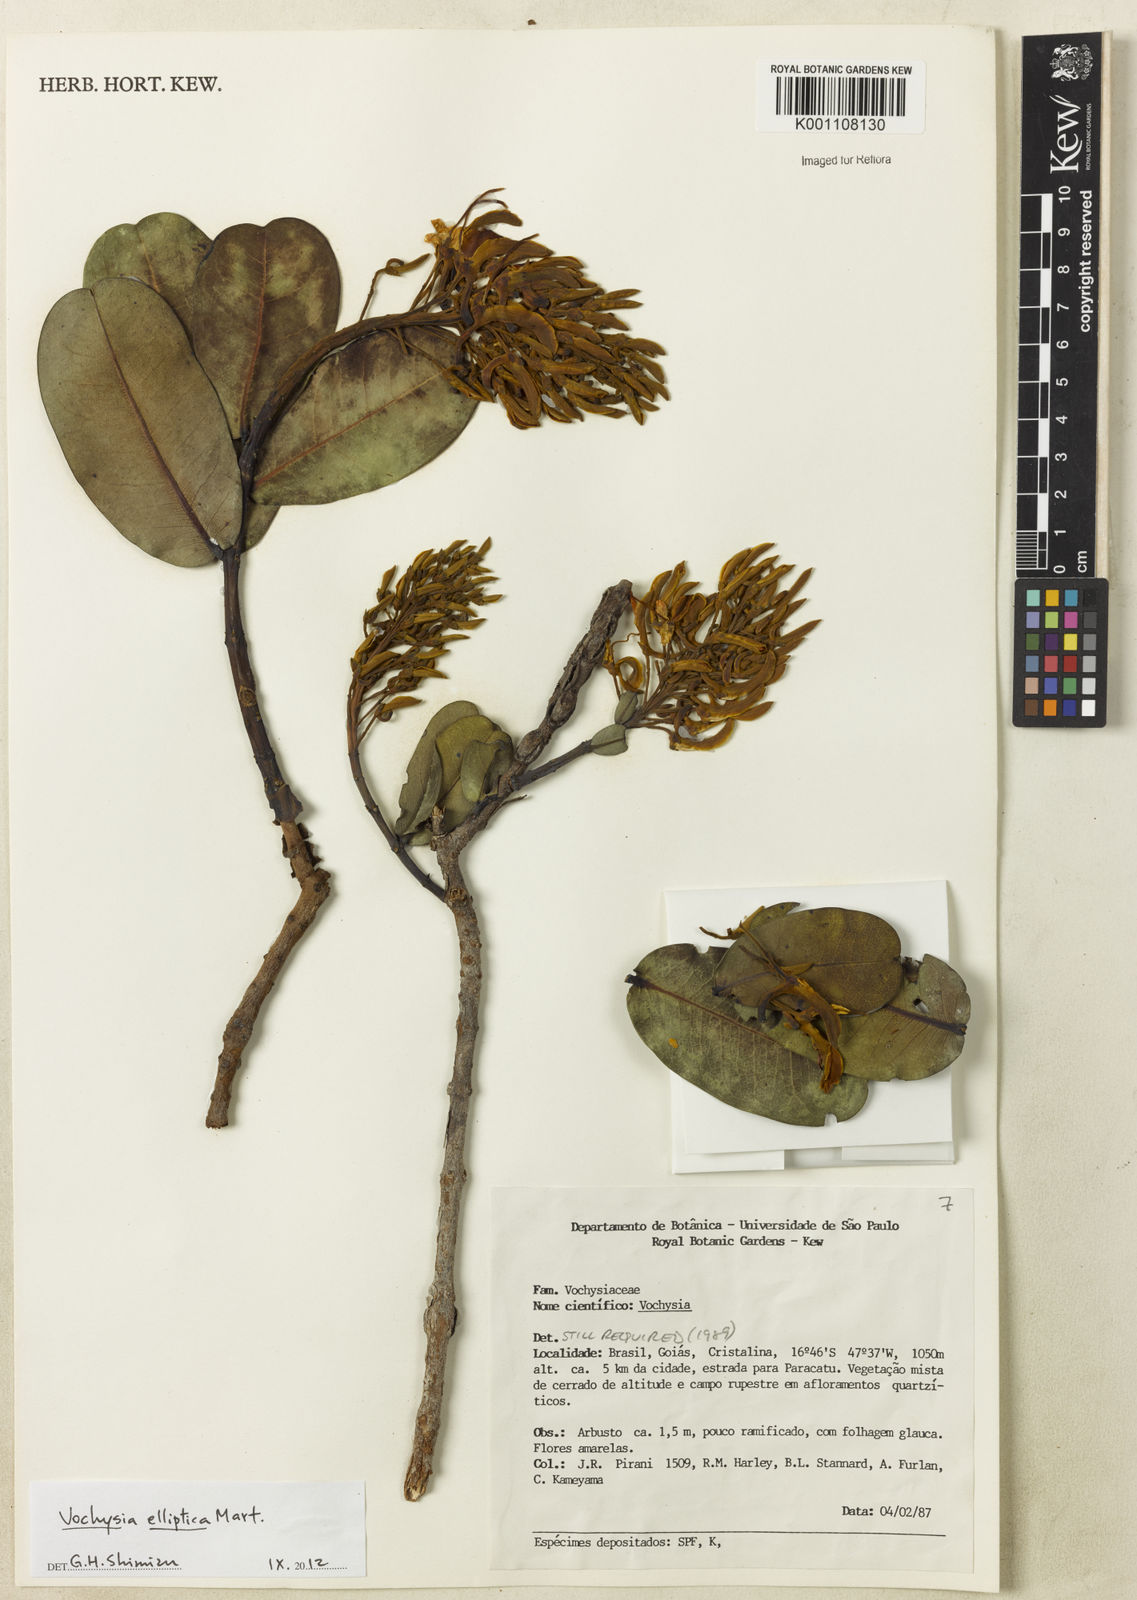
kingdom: Plantae
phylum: Tracheophyta
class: Magnoliopsida
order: Myrtales
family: Vochysiaceae
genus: Vochysia
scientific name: Vochysia rufa
